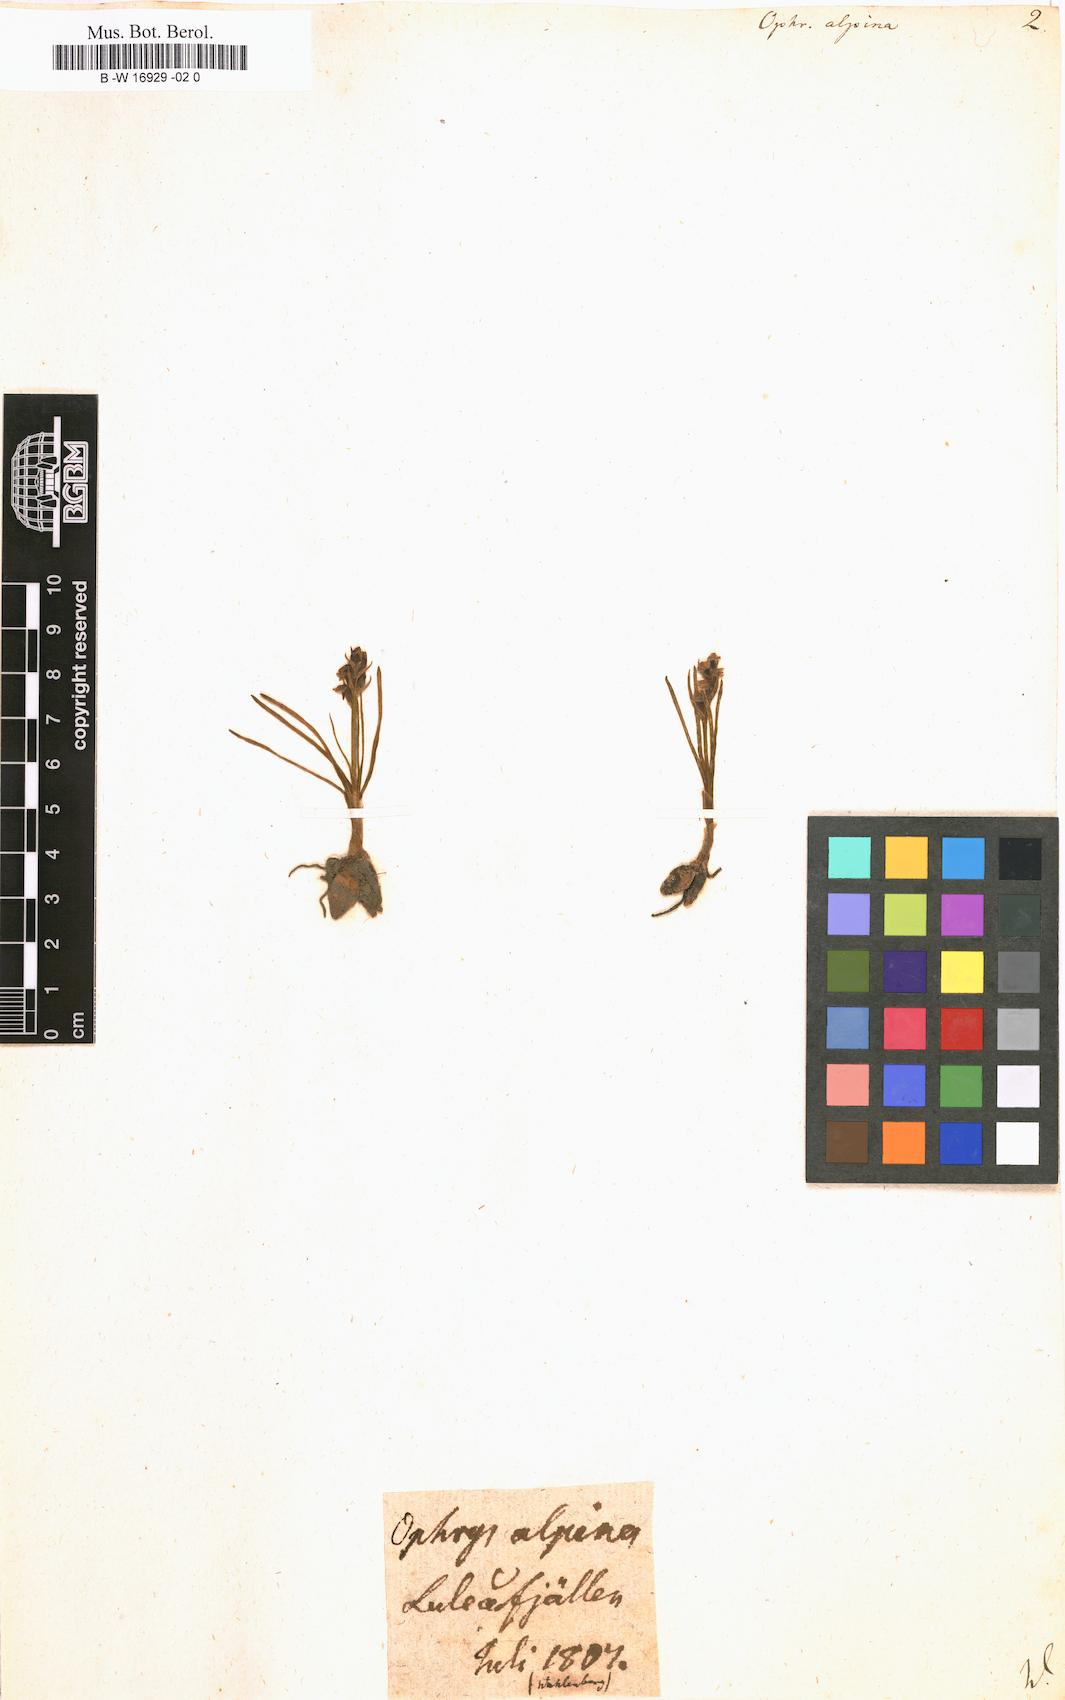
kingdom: Plantae
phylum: Tracheophyta
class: Liliopsida
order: Asparagales
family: Orchidaceae
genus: Chamorchis
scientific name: Chamorchis alpina
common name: Alpine chamorchis
